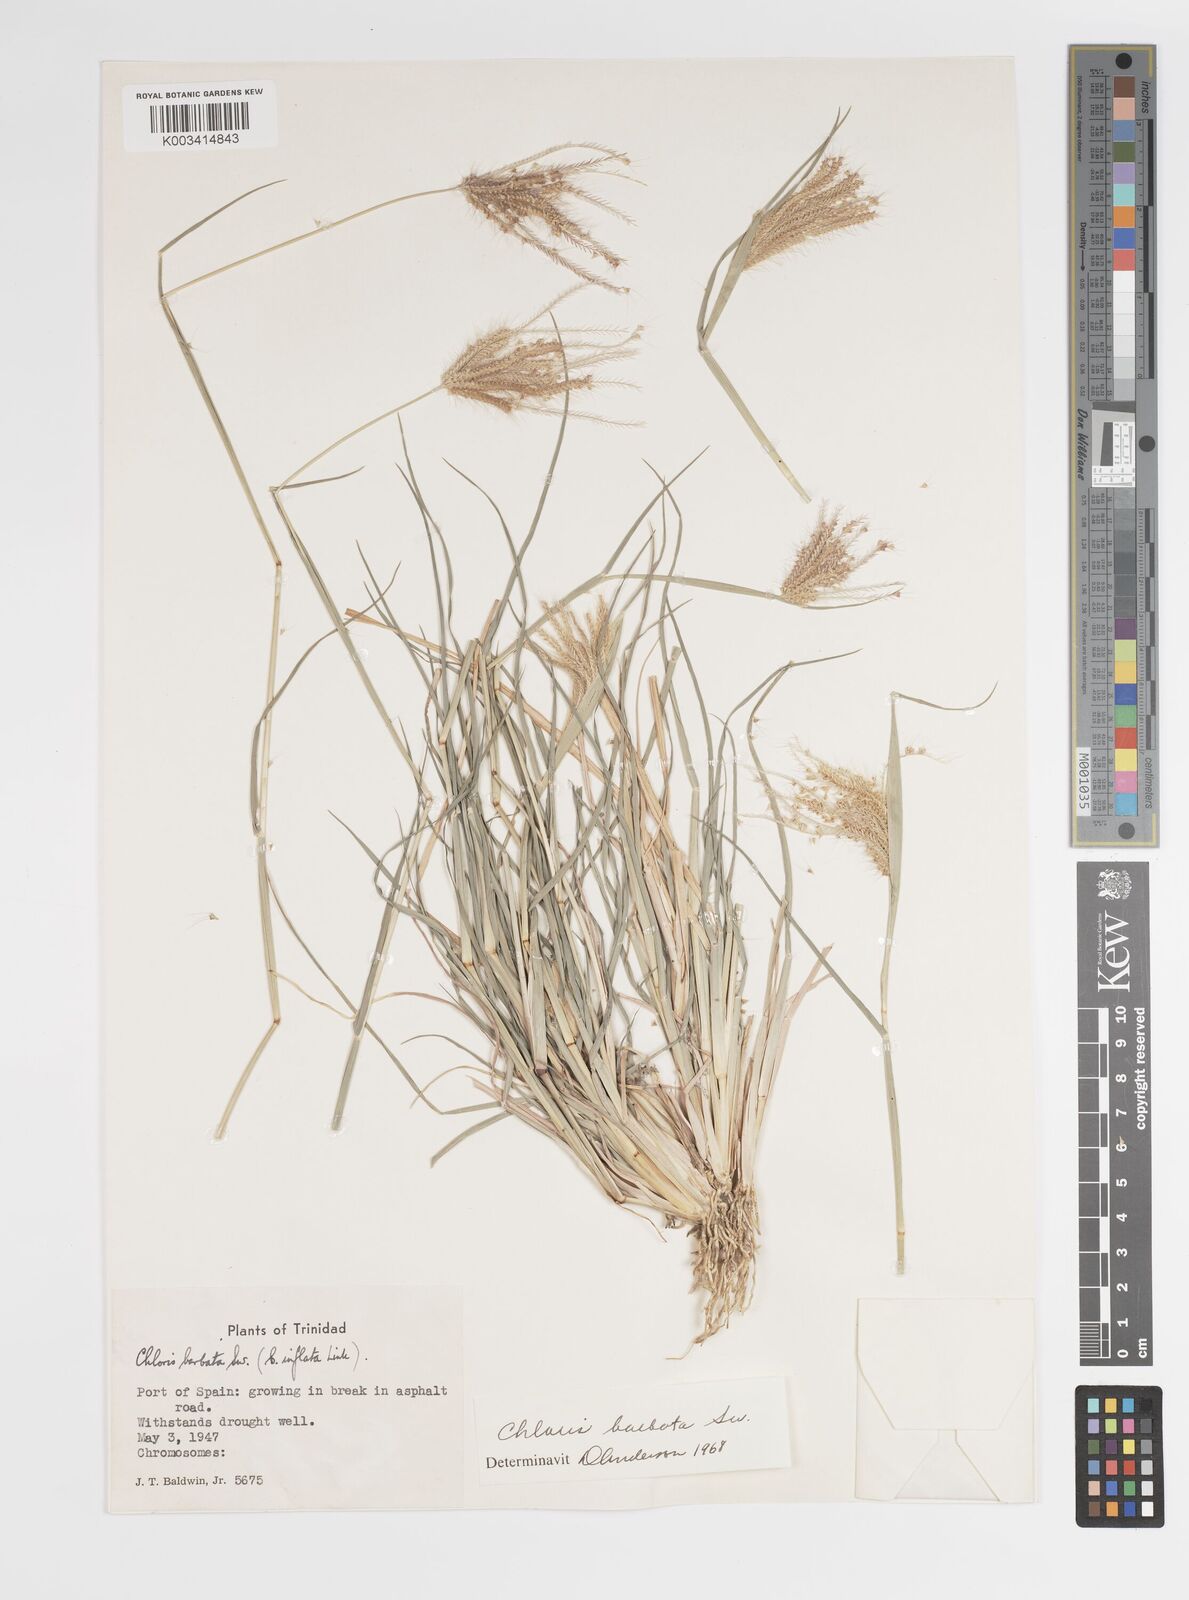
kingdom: Plantae
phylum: Tracheophyta
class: Liliopsida
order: Poales
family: Poaceae
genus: Chloris
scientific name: Chloris barbata
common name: Swollen fingergrass
